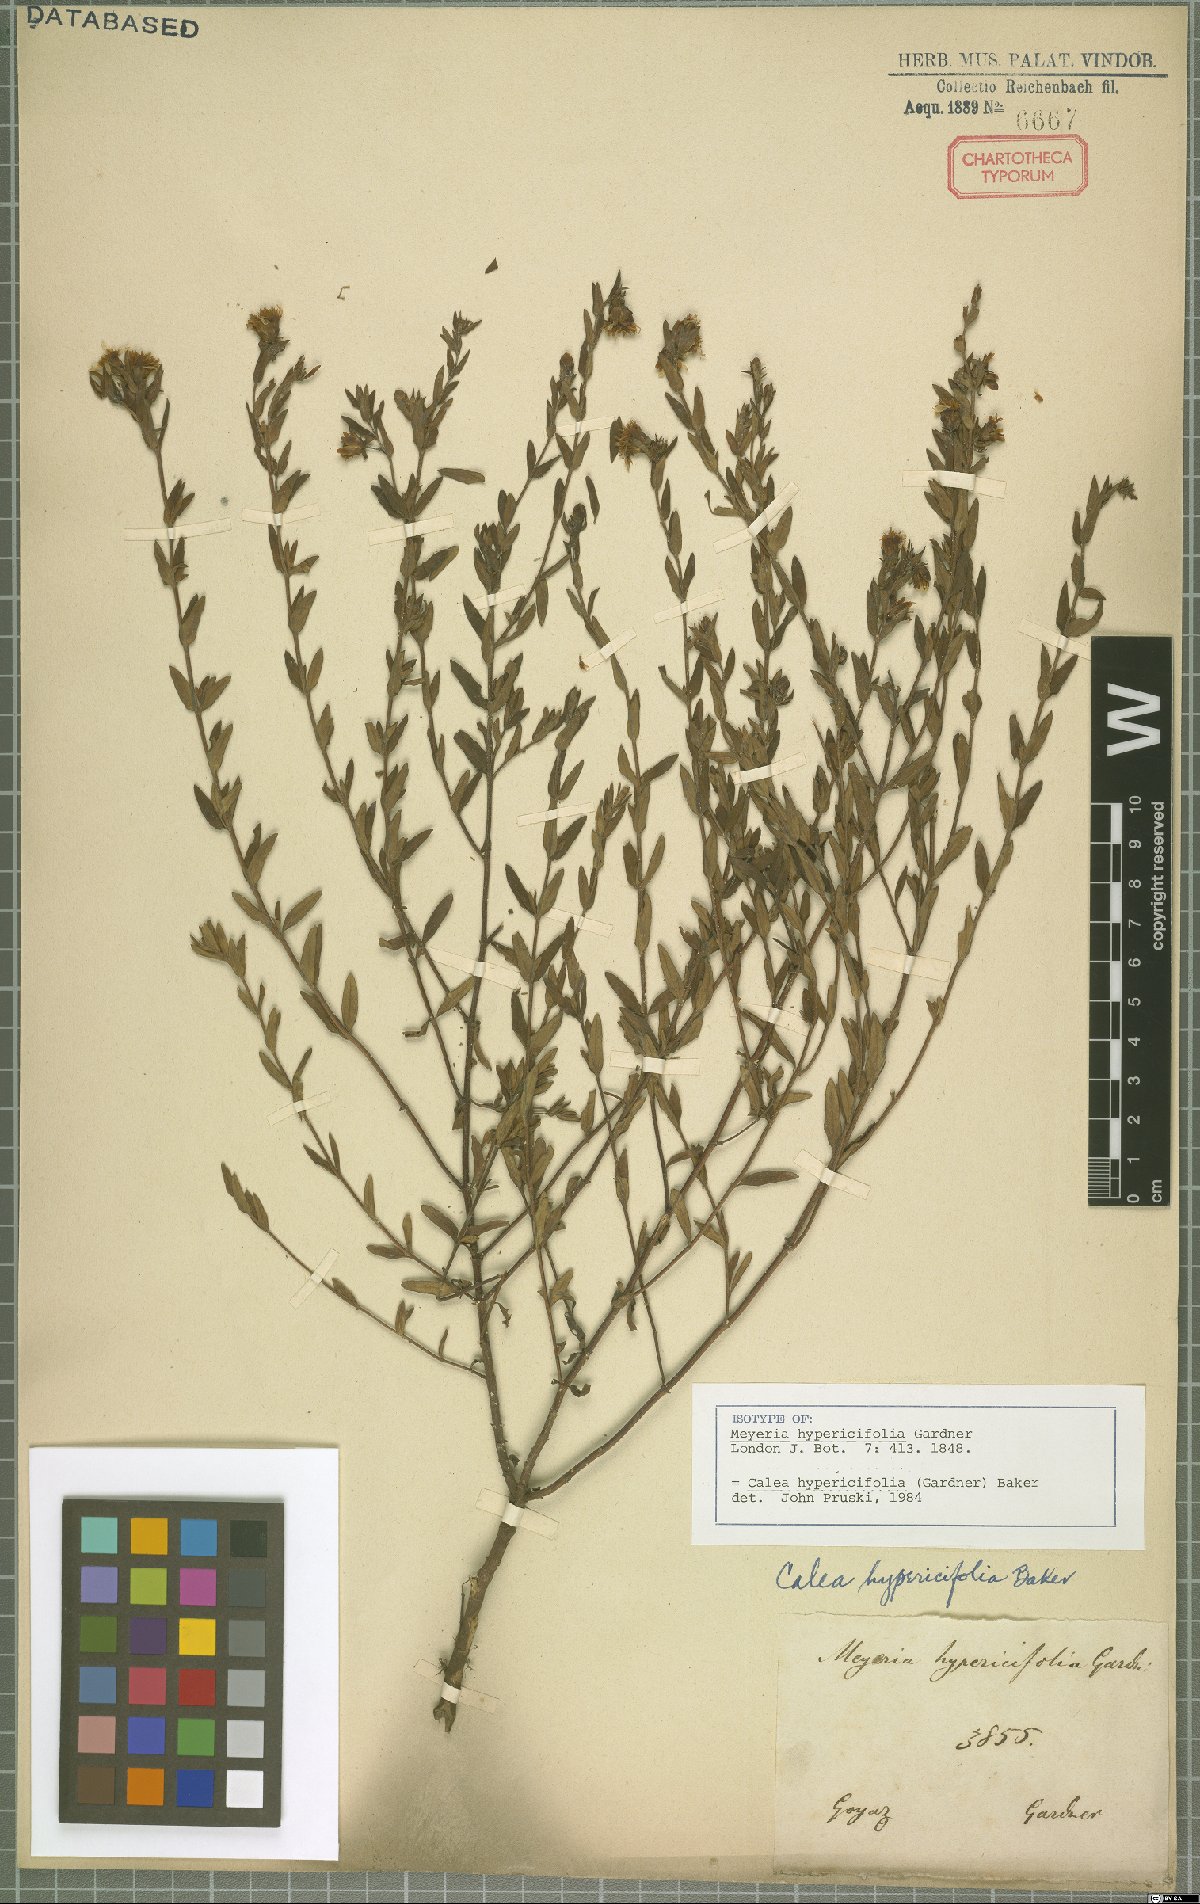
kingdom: Plantae
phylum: Tracheophyta
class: Magnoliopsida
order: Asterales
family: Asteraceae
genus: Calea
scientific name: Calea hypericifolia
